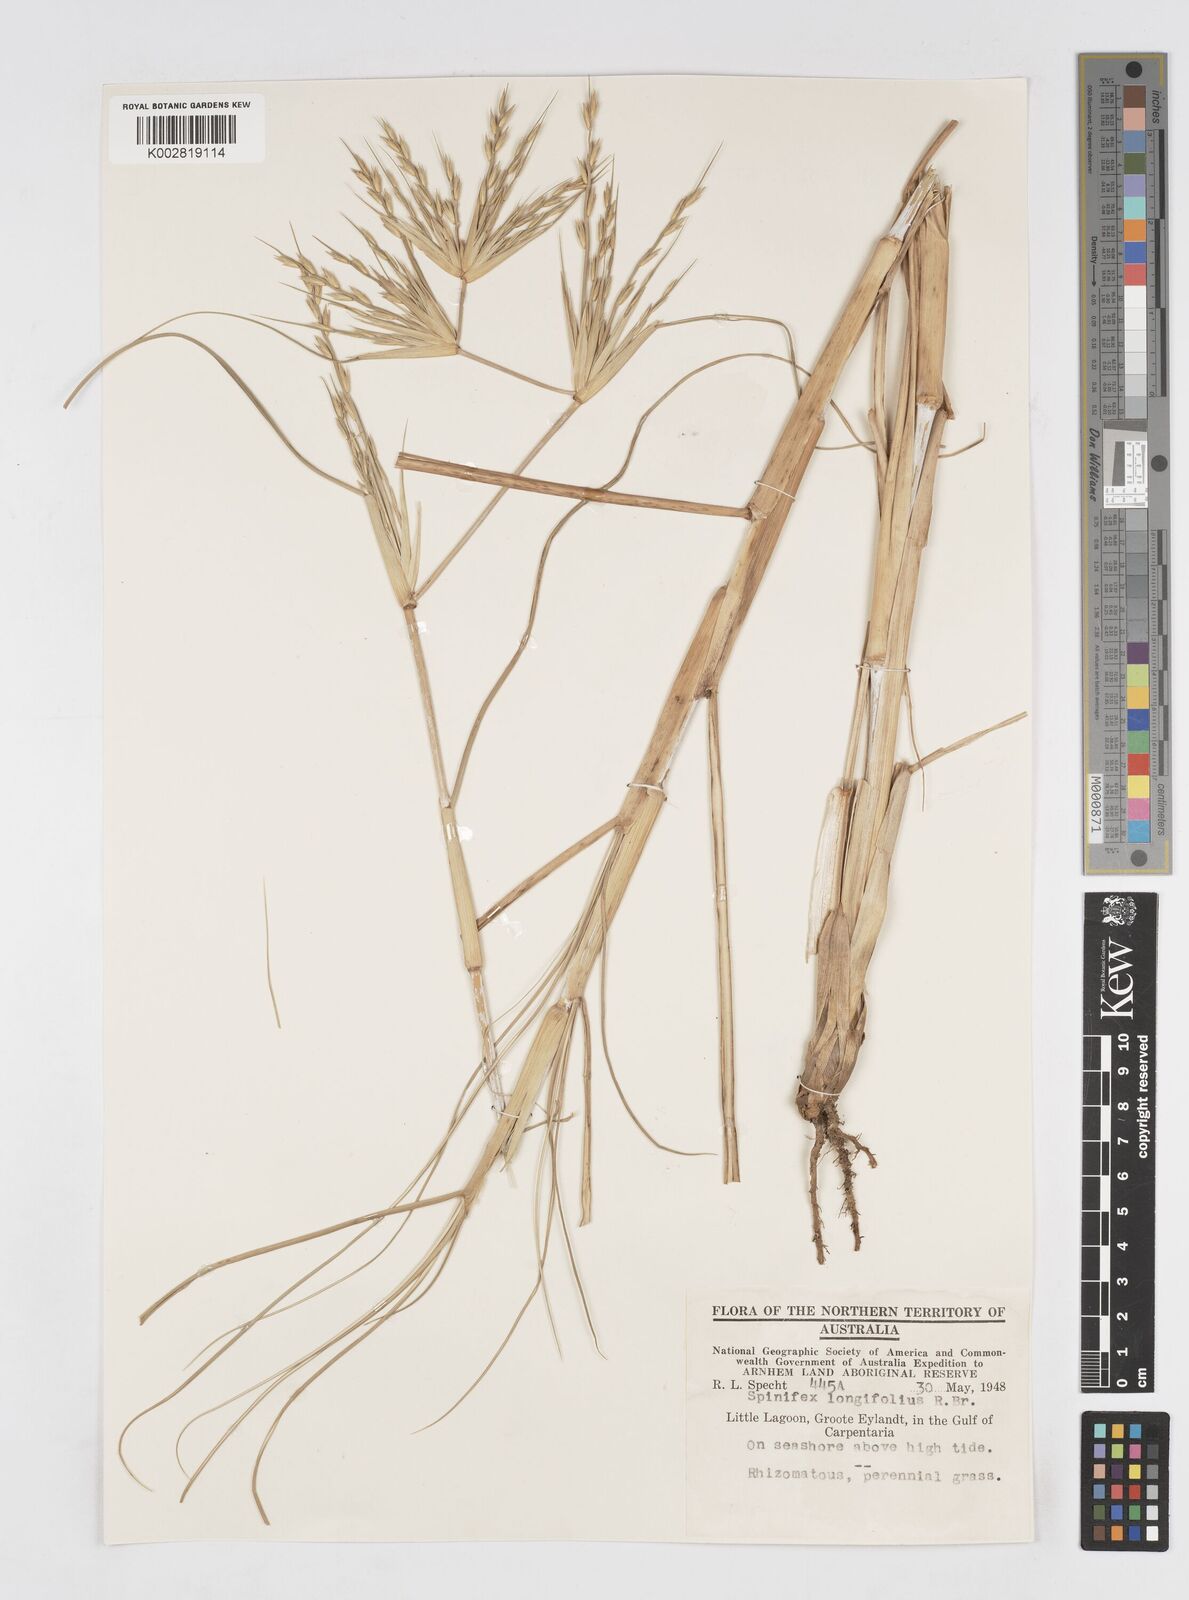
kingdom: Plantae
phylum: Tracheophyta
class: Liliopsida
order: Poales
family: Poaceae
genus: Spinifex
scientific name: Spinifex longifolius
